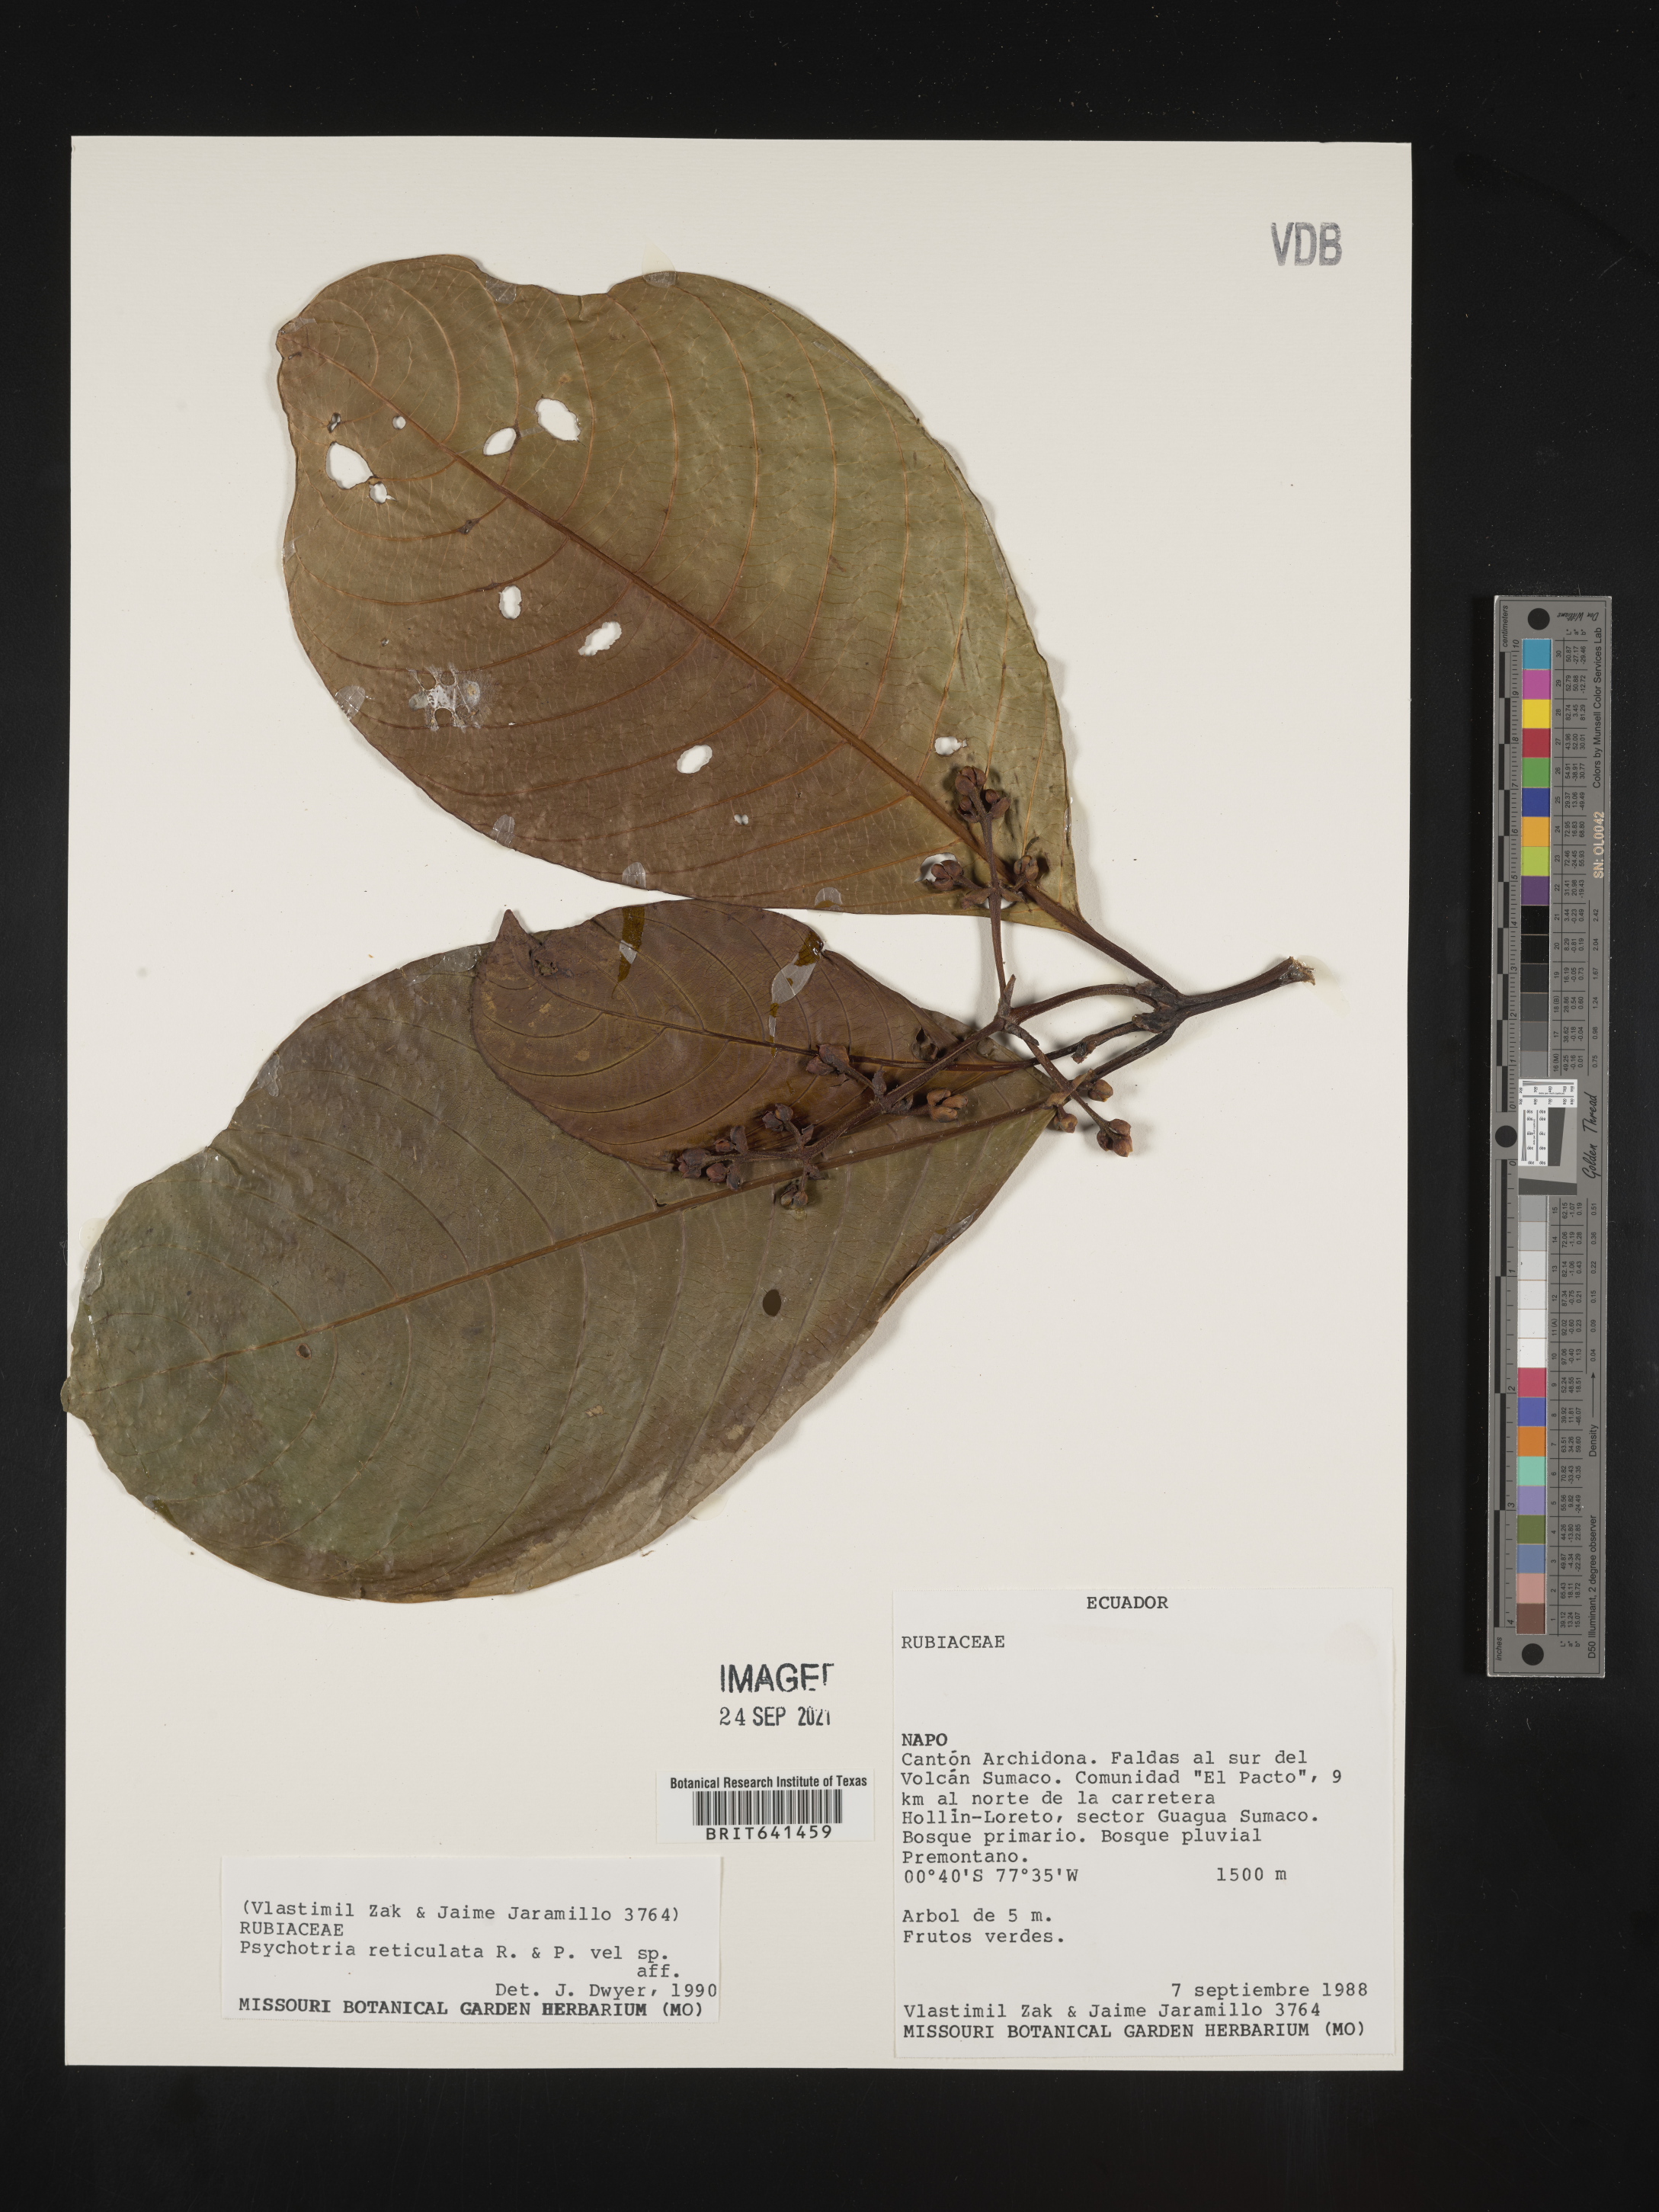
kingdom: Plantae
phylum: Tracheophyta
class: Magnoliopsida
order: Gentianales
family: Rubiaceae
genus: Psychotria
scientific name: Psychotria
